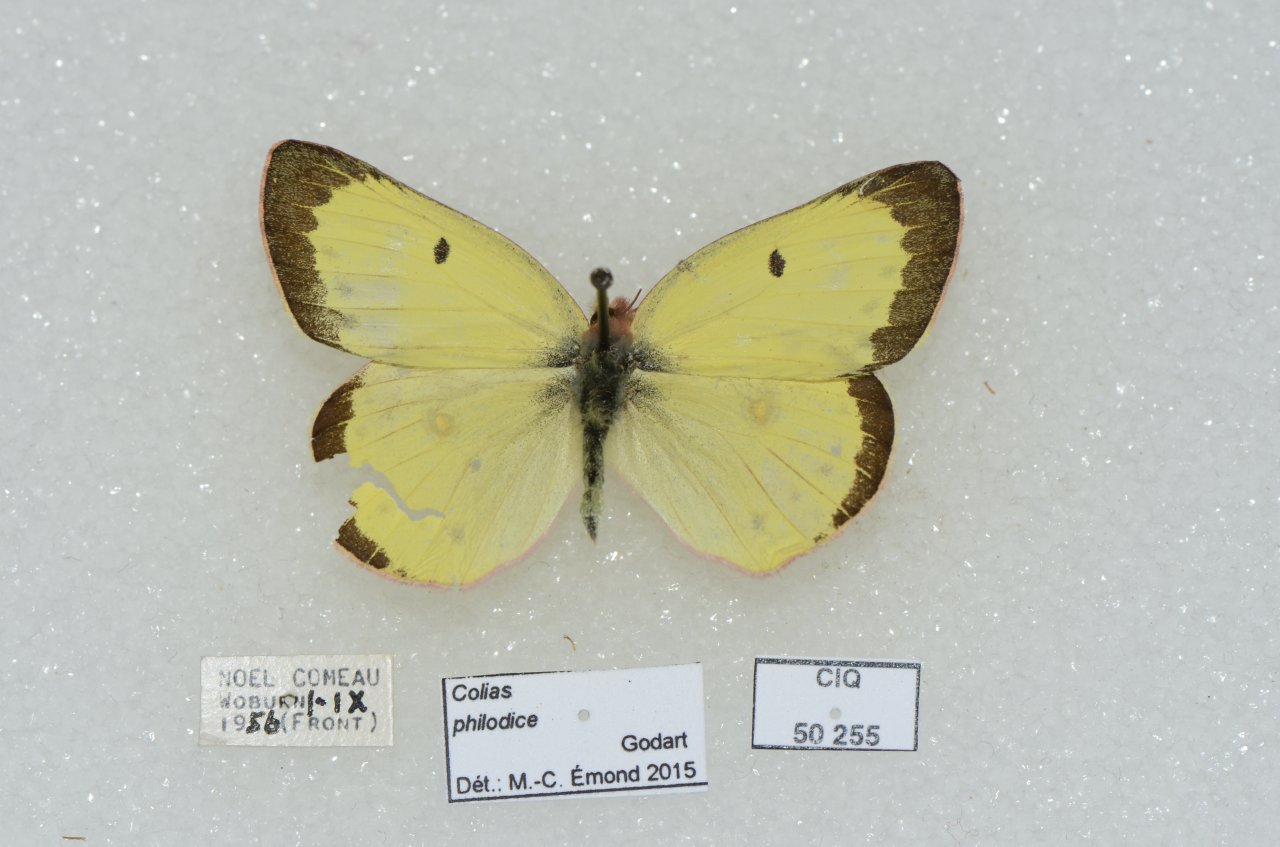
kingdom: Animalia
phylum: Arthropoda
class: Insecta
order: Lepidoptera
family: Pieridae
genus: Colias
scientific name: Colias philodice
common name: Clouded Sulphur
